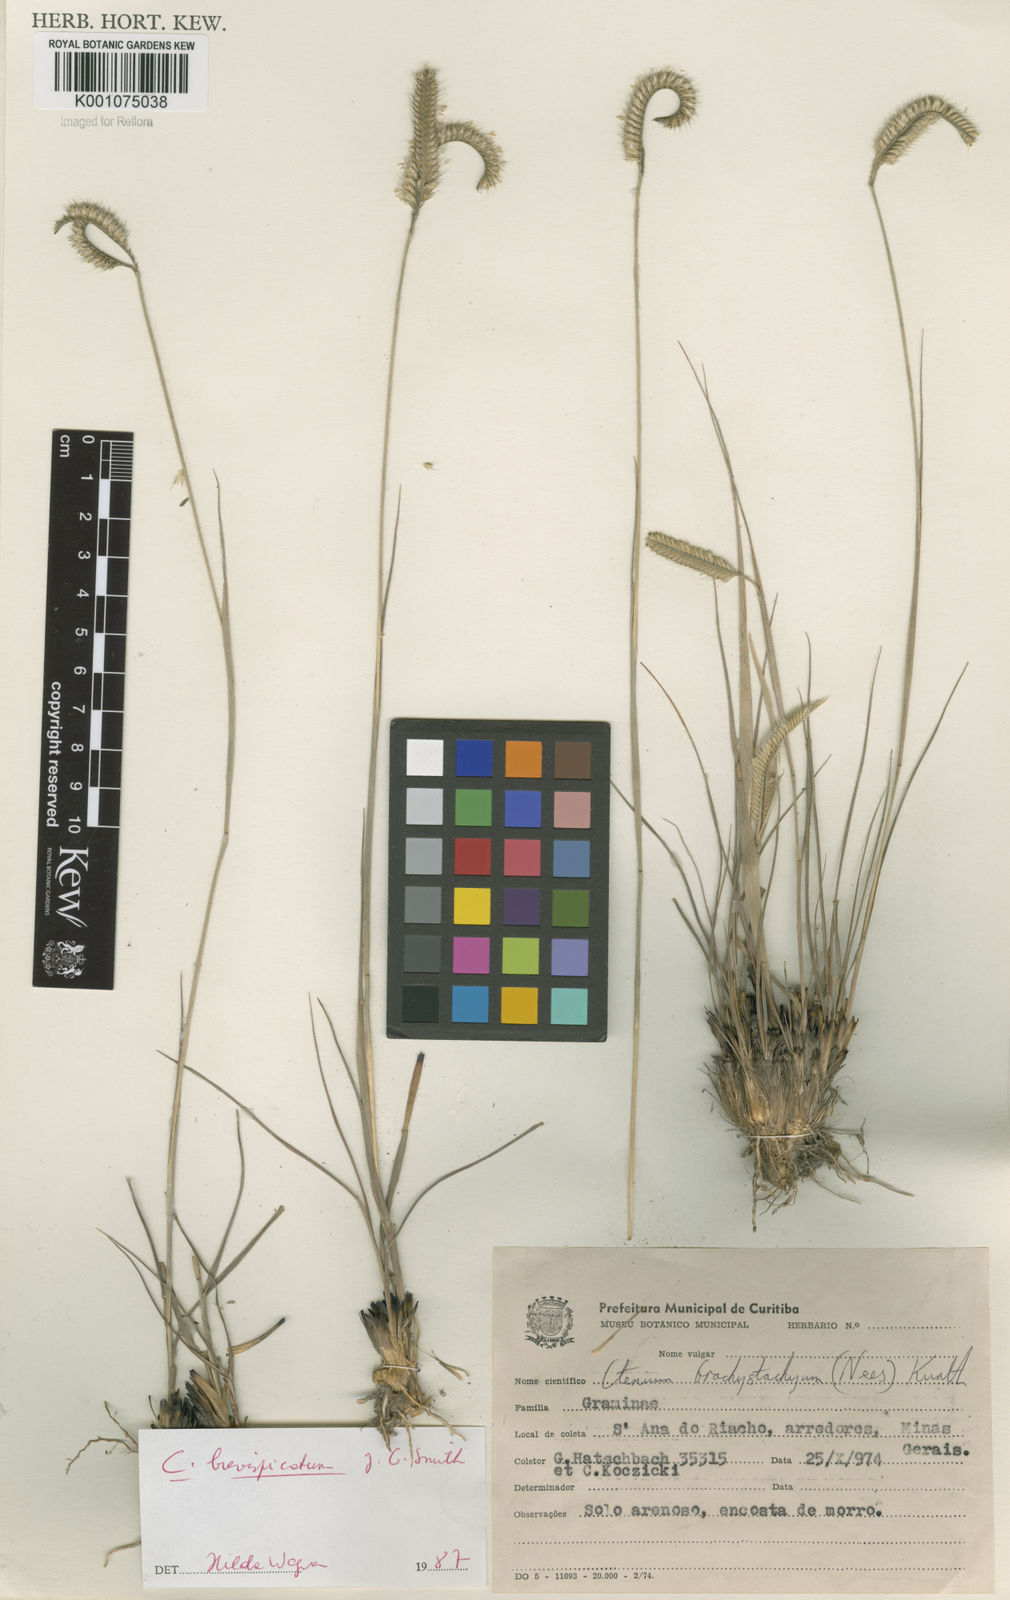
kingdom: Plantae
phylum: Tracheophyta
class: Liliopsida
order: Poales
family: Poaceae
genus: Ctenium
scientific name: Ctenium brevispicatum
